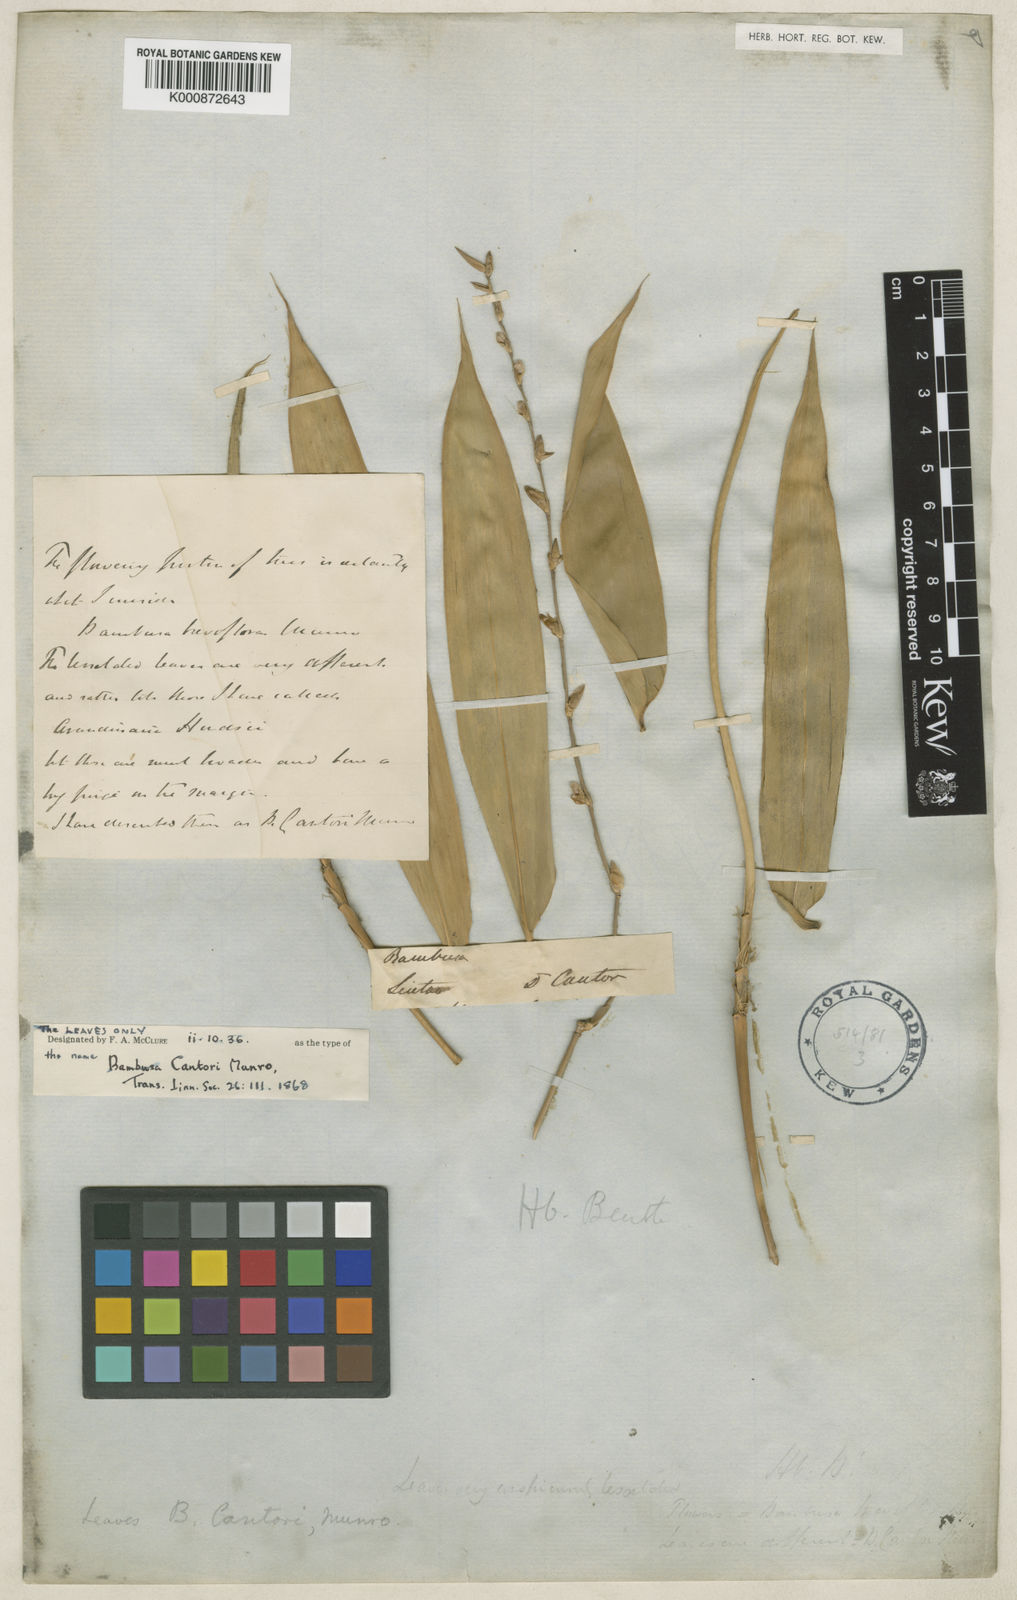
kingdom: Plantae
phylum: Tracheophyta
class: Liliopsida
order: Poales
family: Poaceae
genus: Arundinaria
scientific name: Arundinaria
